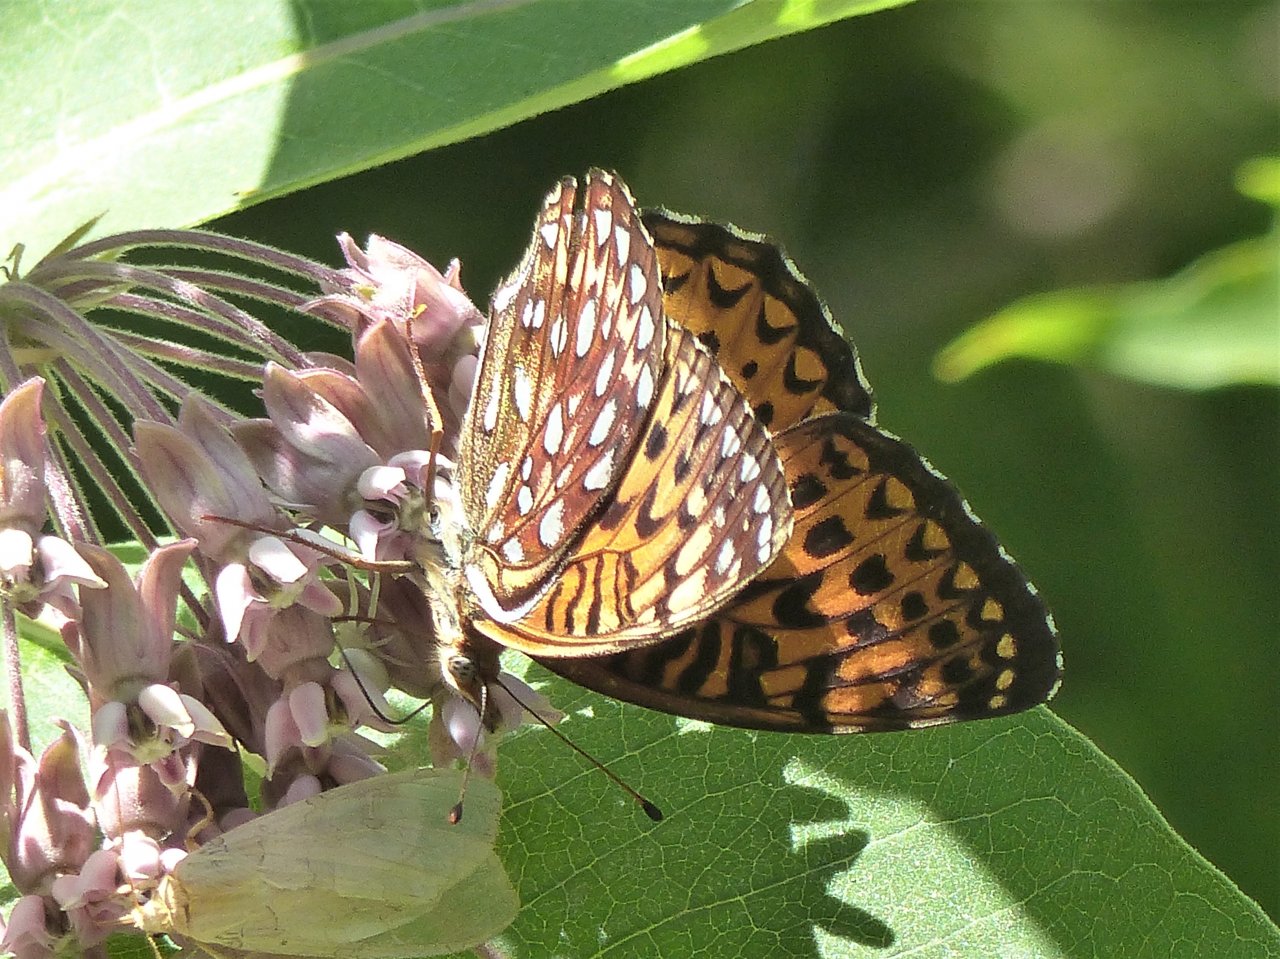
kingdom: Animalia
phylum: Arthropoda
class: Insecta
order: Lepidoptera
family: Nymphalidae
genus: Speyeria
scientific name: Speyeria atlantis
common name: Atlantis Fritillary
